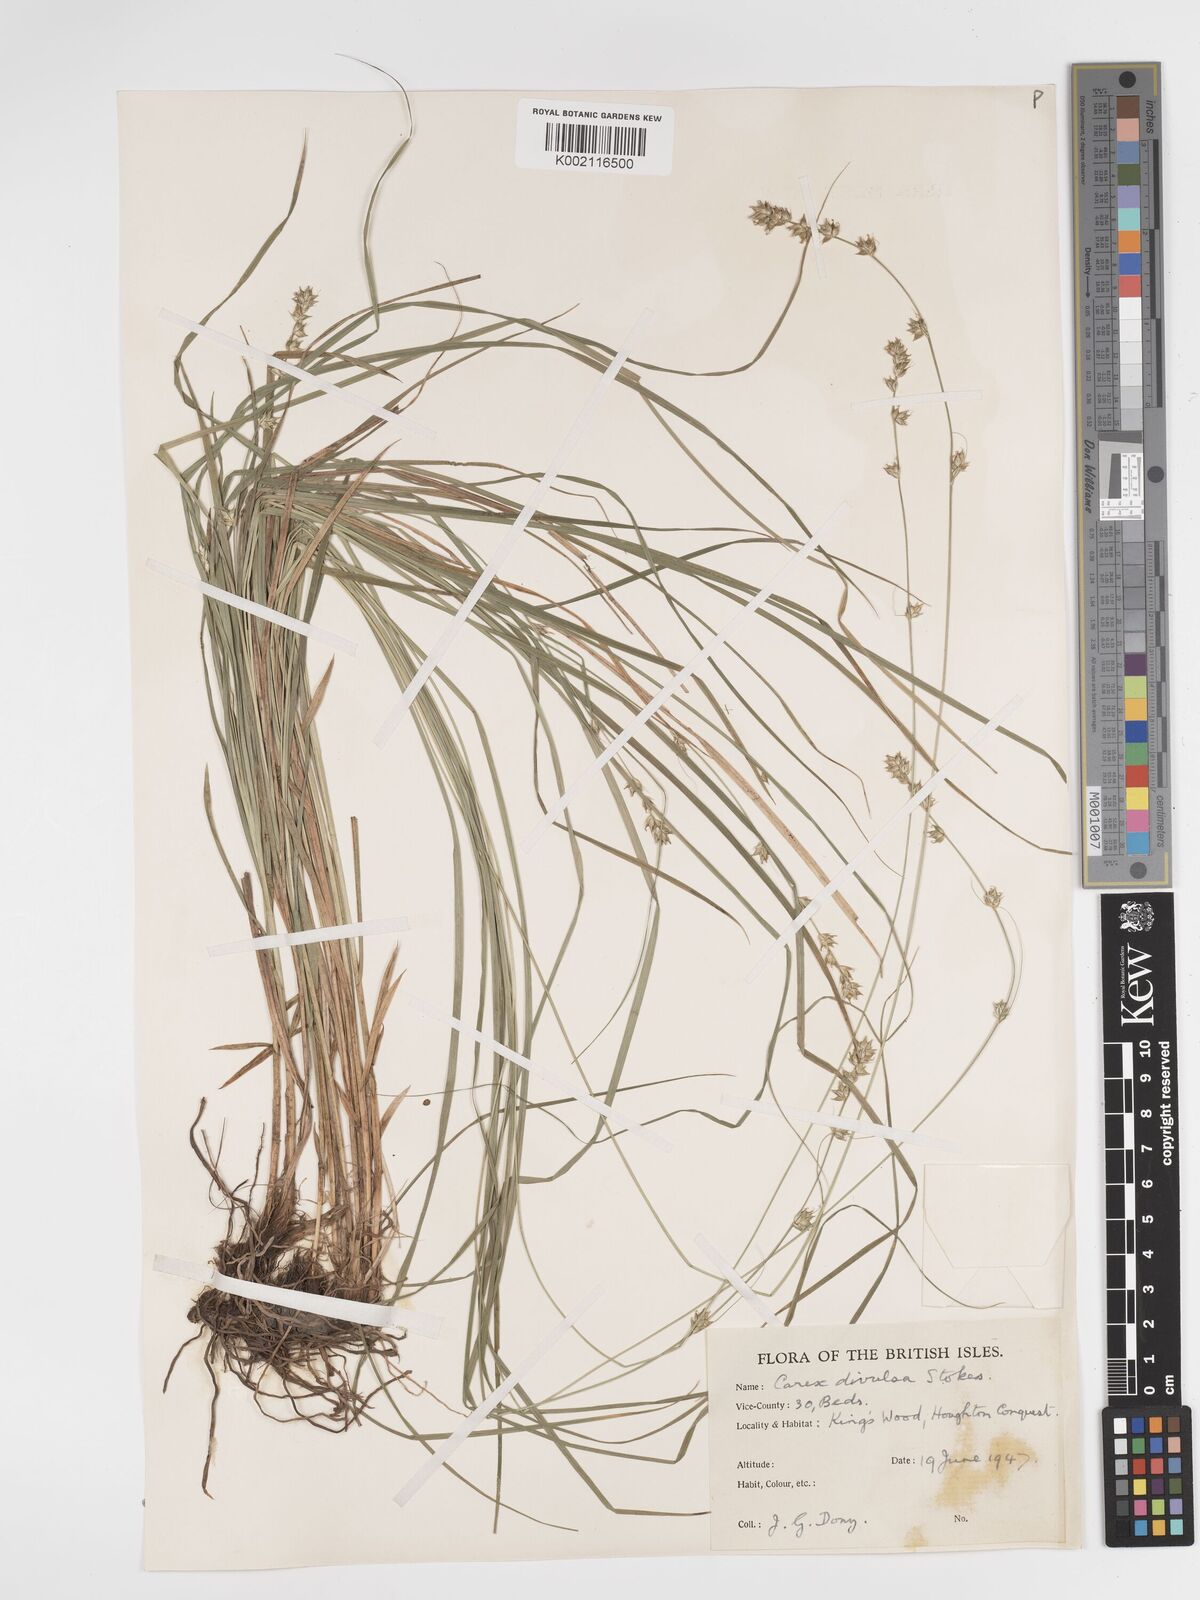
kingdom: Plantae
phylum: Tracheophyta
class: Liliopsida
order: Poales
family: Cyperaceae
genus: Carex
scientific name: Carex divulsa
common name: Grassland sedge
